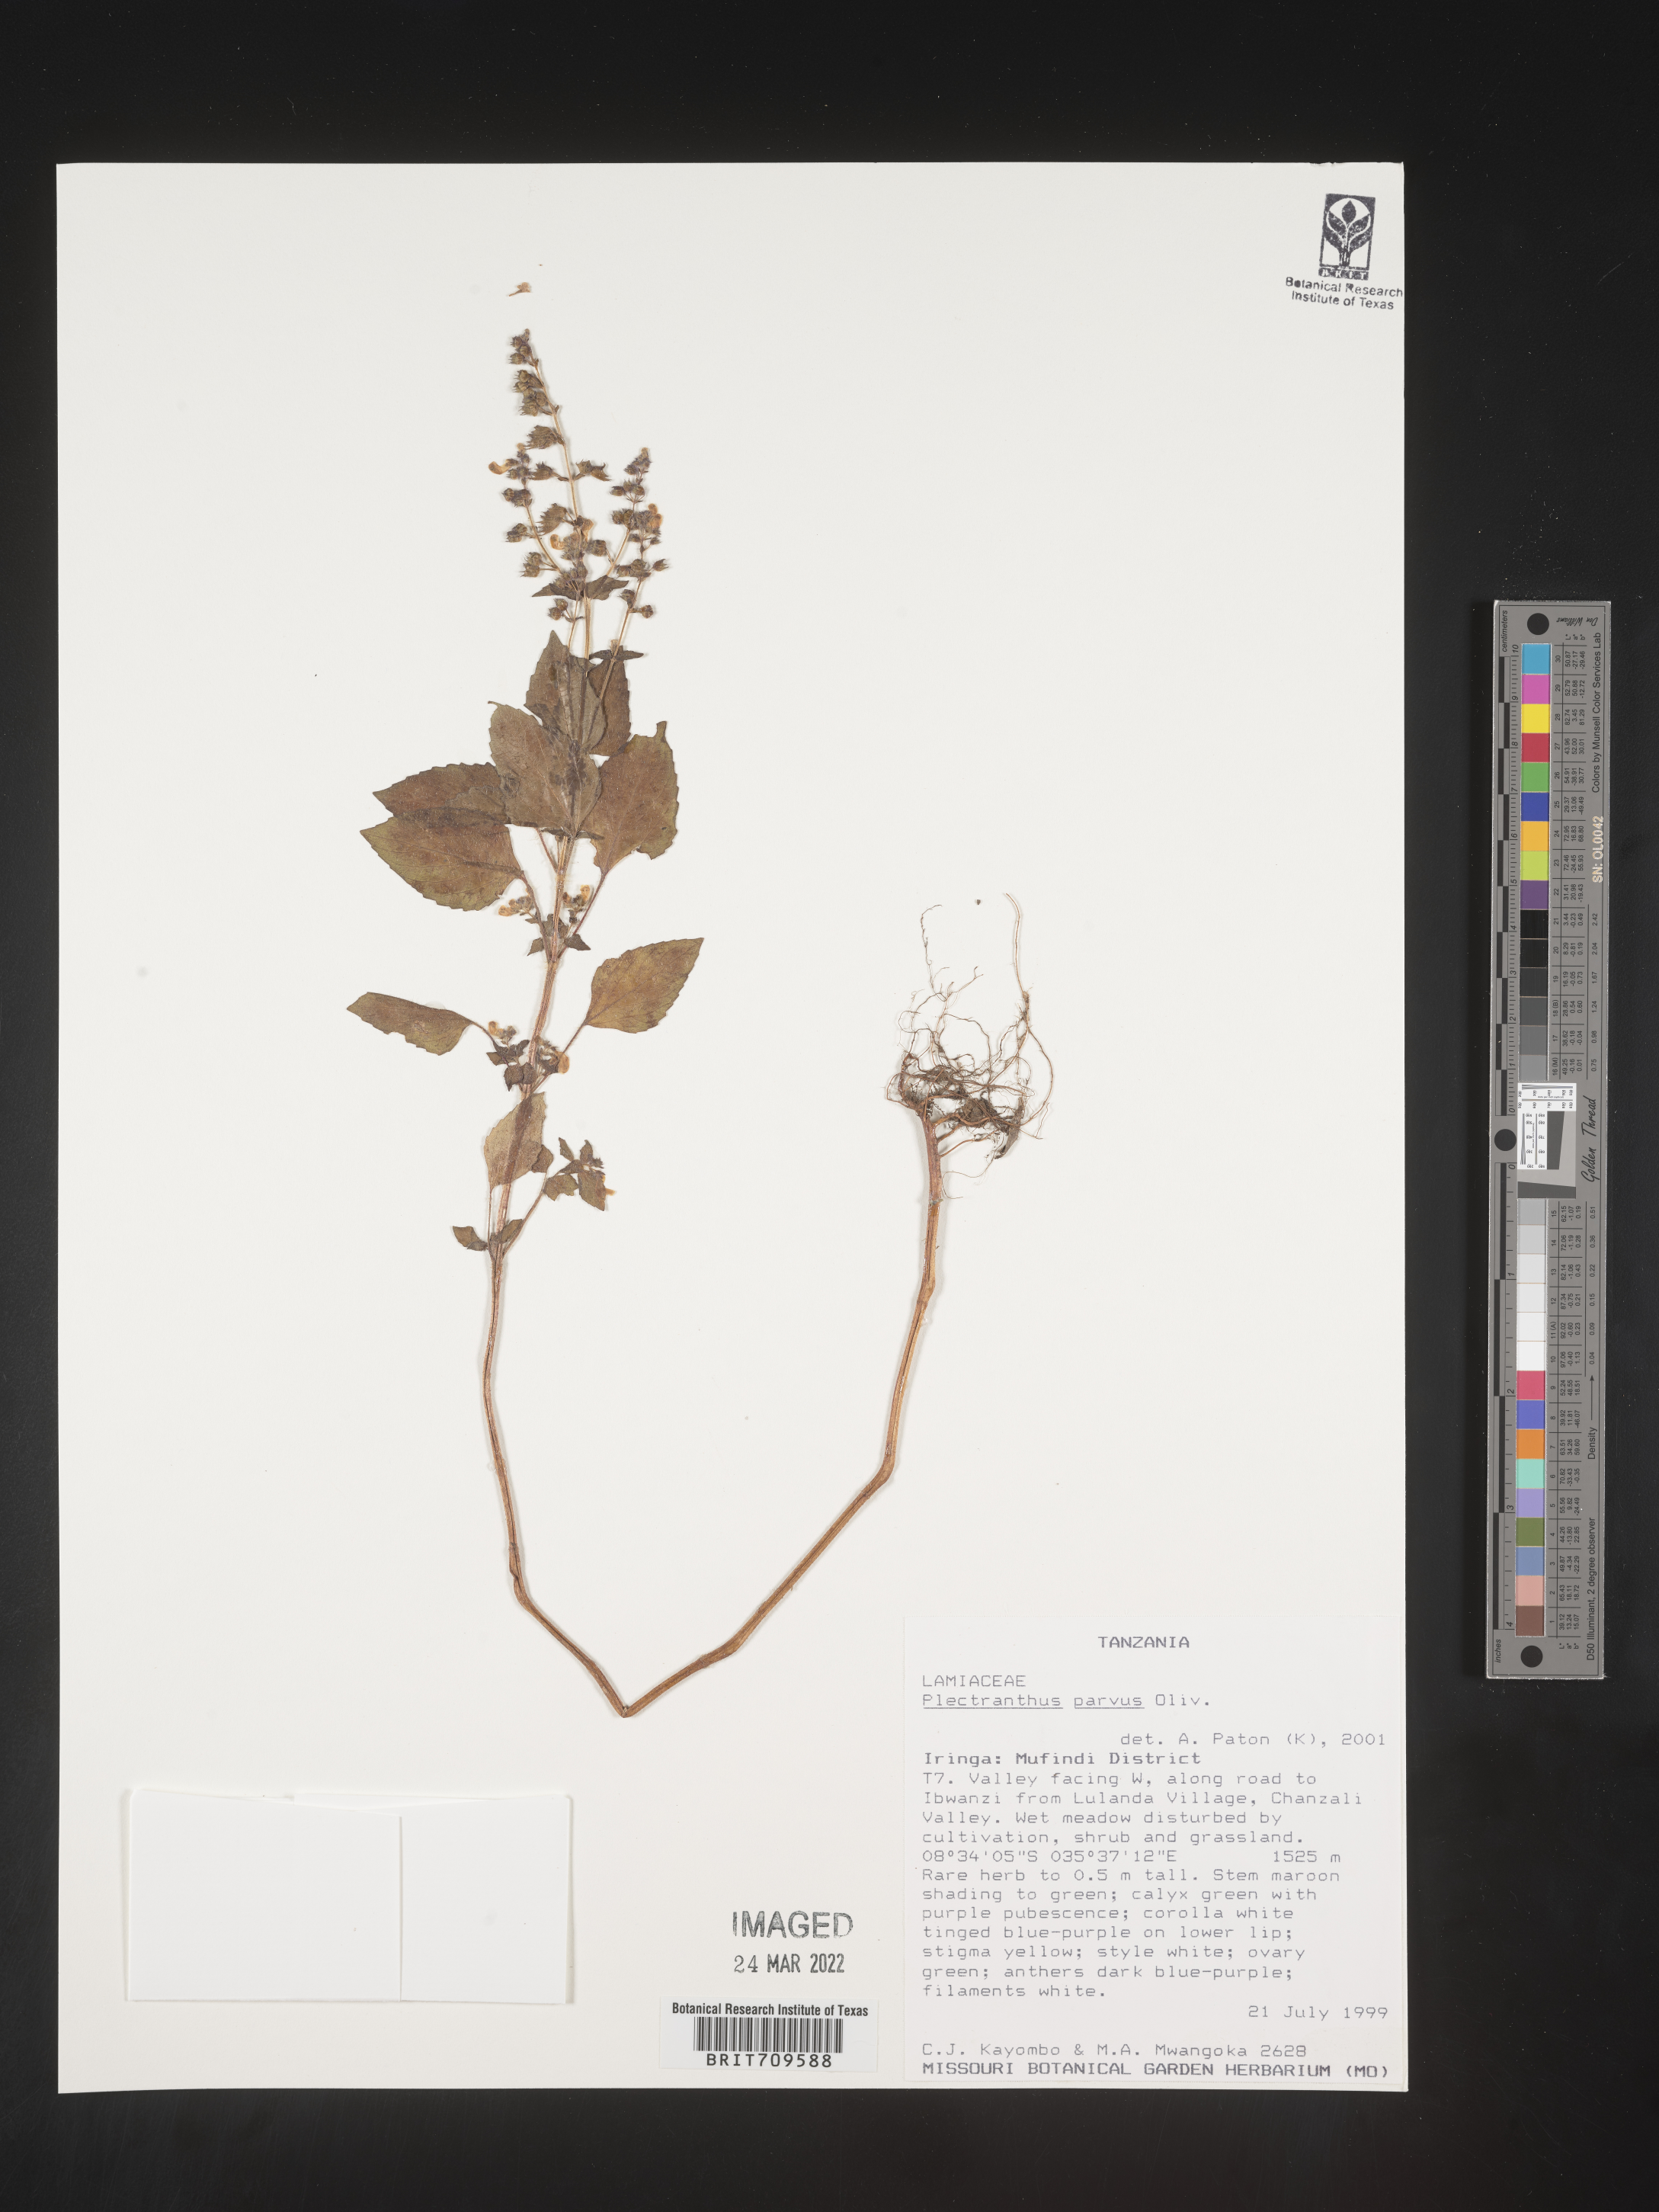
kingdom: Plantae
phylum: Tracheophyta
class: Magnoliopsida
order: Lamiales
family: Lamiaceae
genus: Plectranthus
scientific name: Plectranthus
